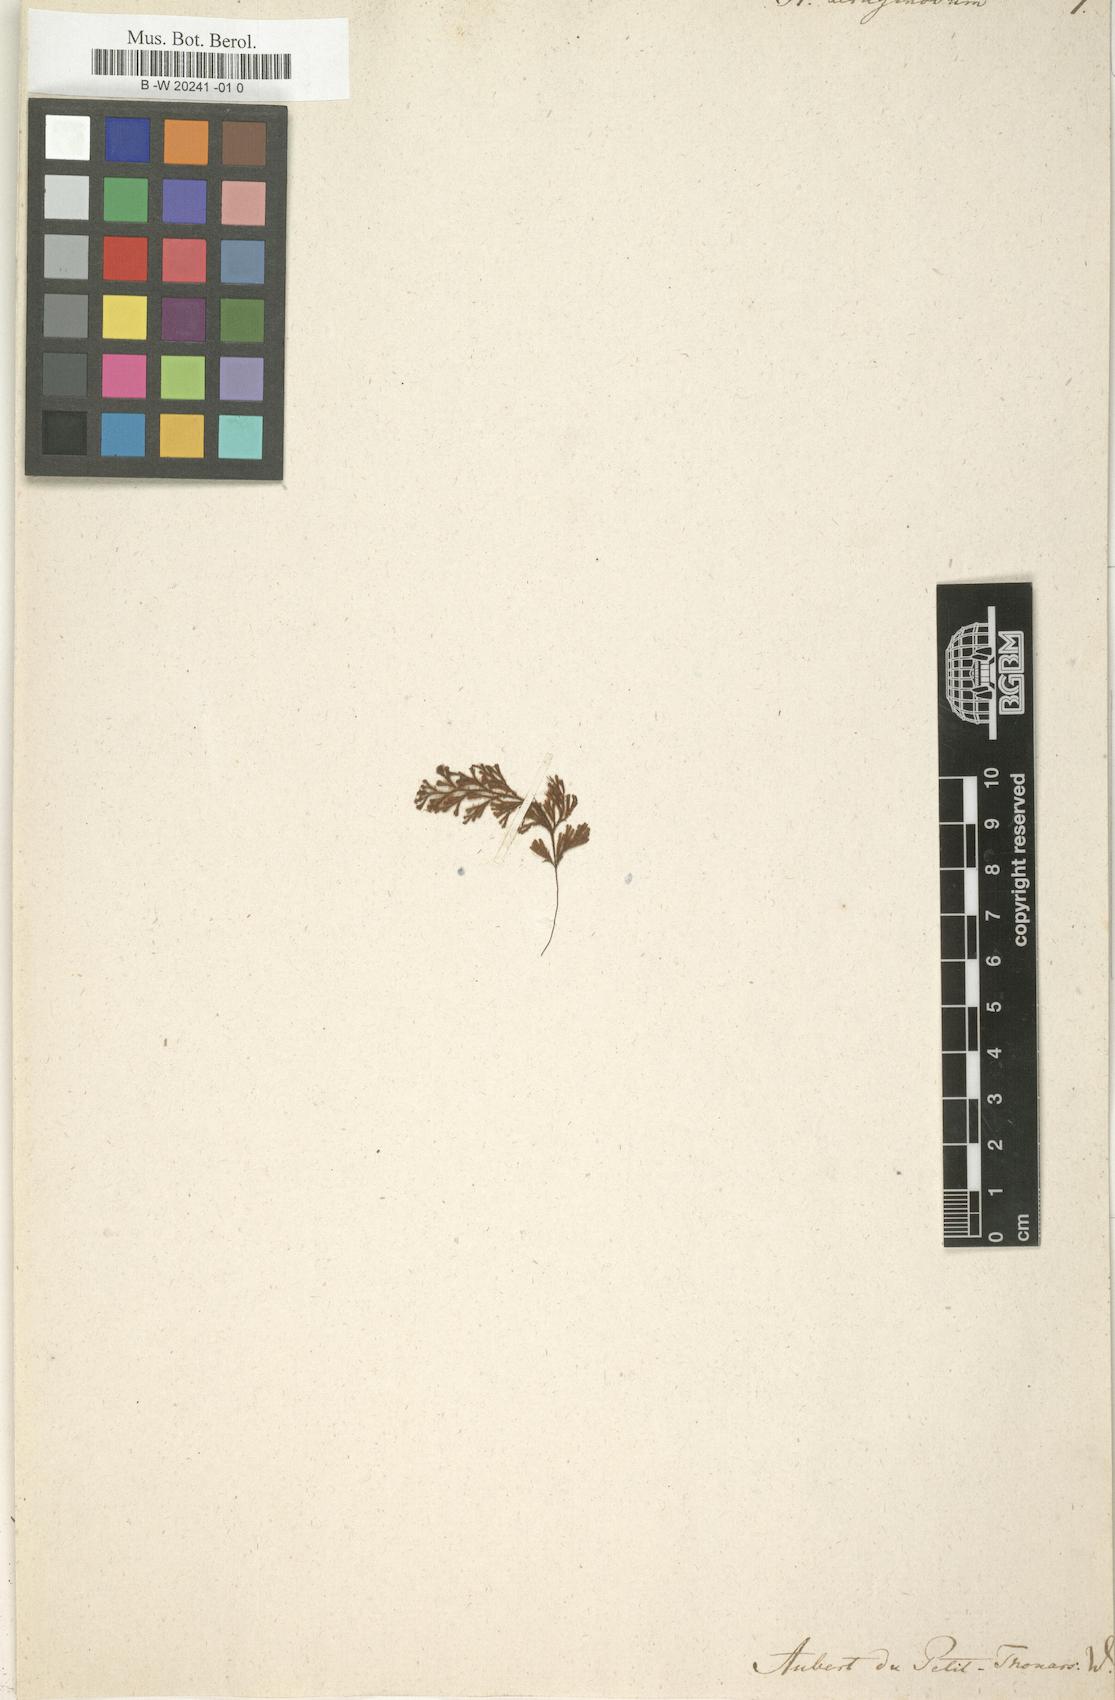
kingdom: Plantae
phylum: Tracheophyta
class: Polypodiopsida
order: Hymenophyllales
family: Hymenophyllaceae
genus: Hymenophyllum
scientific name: Hymenophyllum aeruginosum
